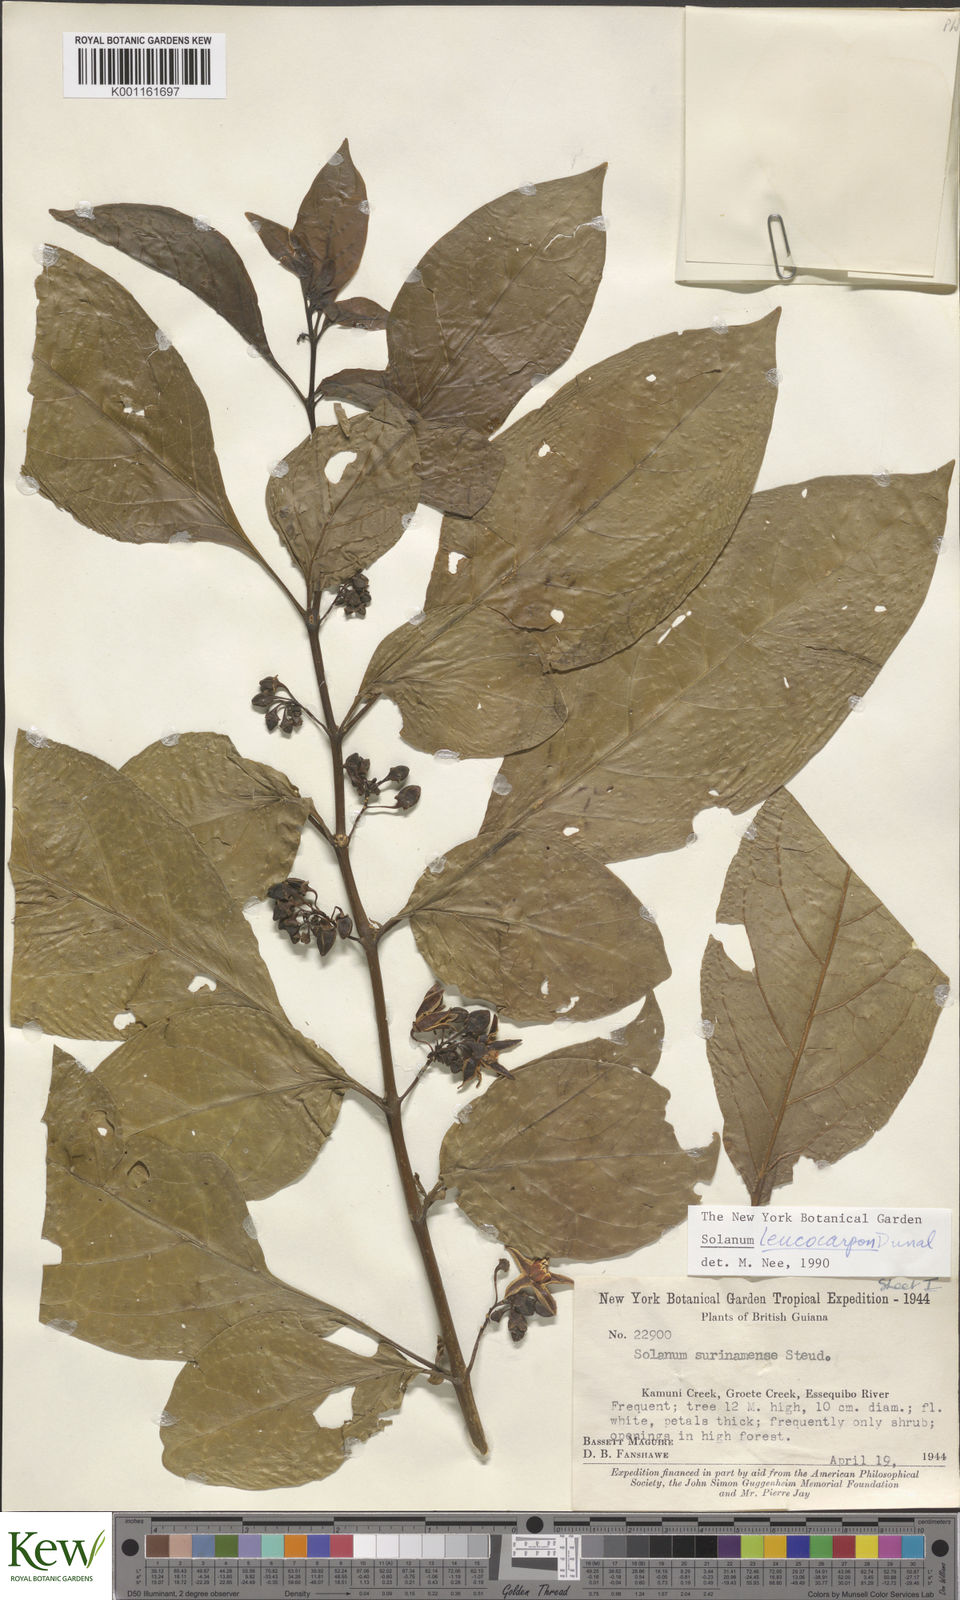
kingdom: Plantae
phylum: Tracheophyta
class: Magnoliopsida
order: Solanales
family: Solanaceae
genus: Solanum
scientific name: Solanum leucocarpon
